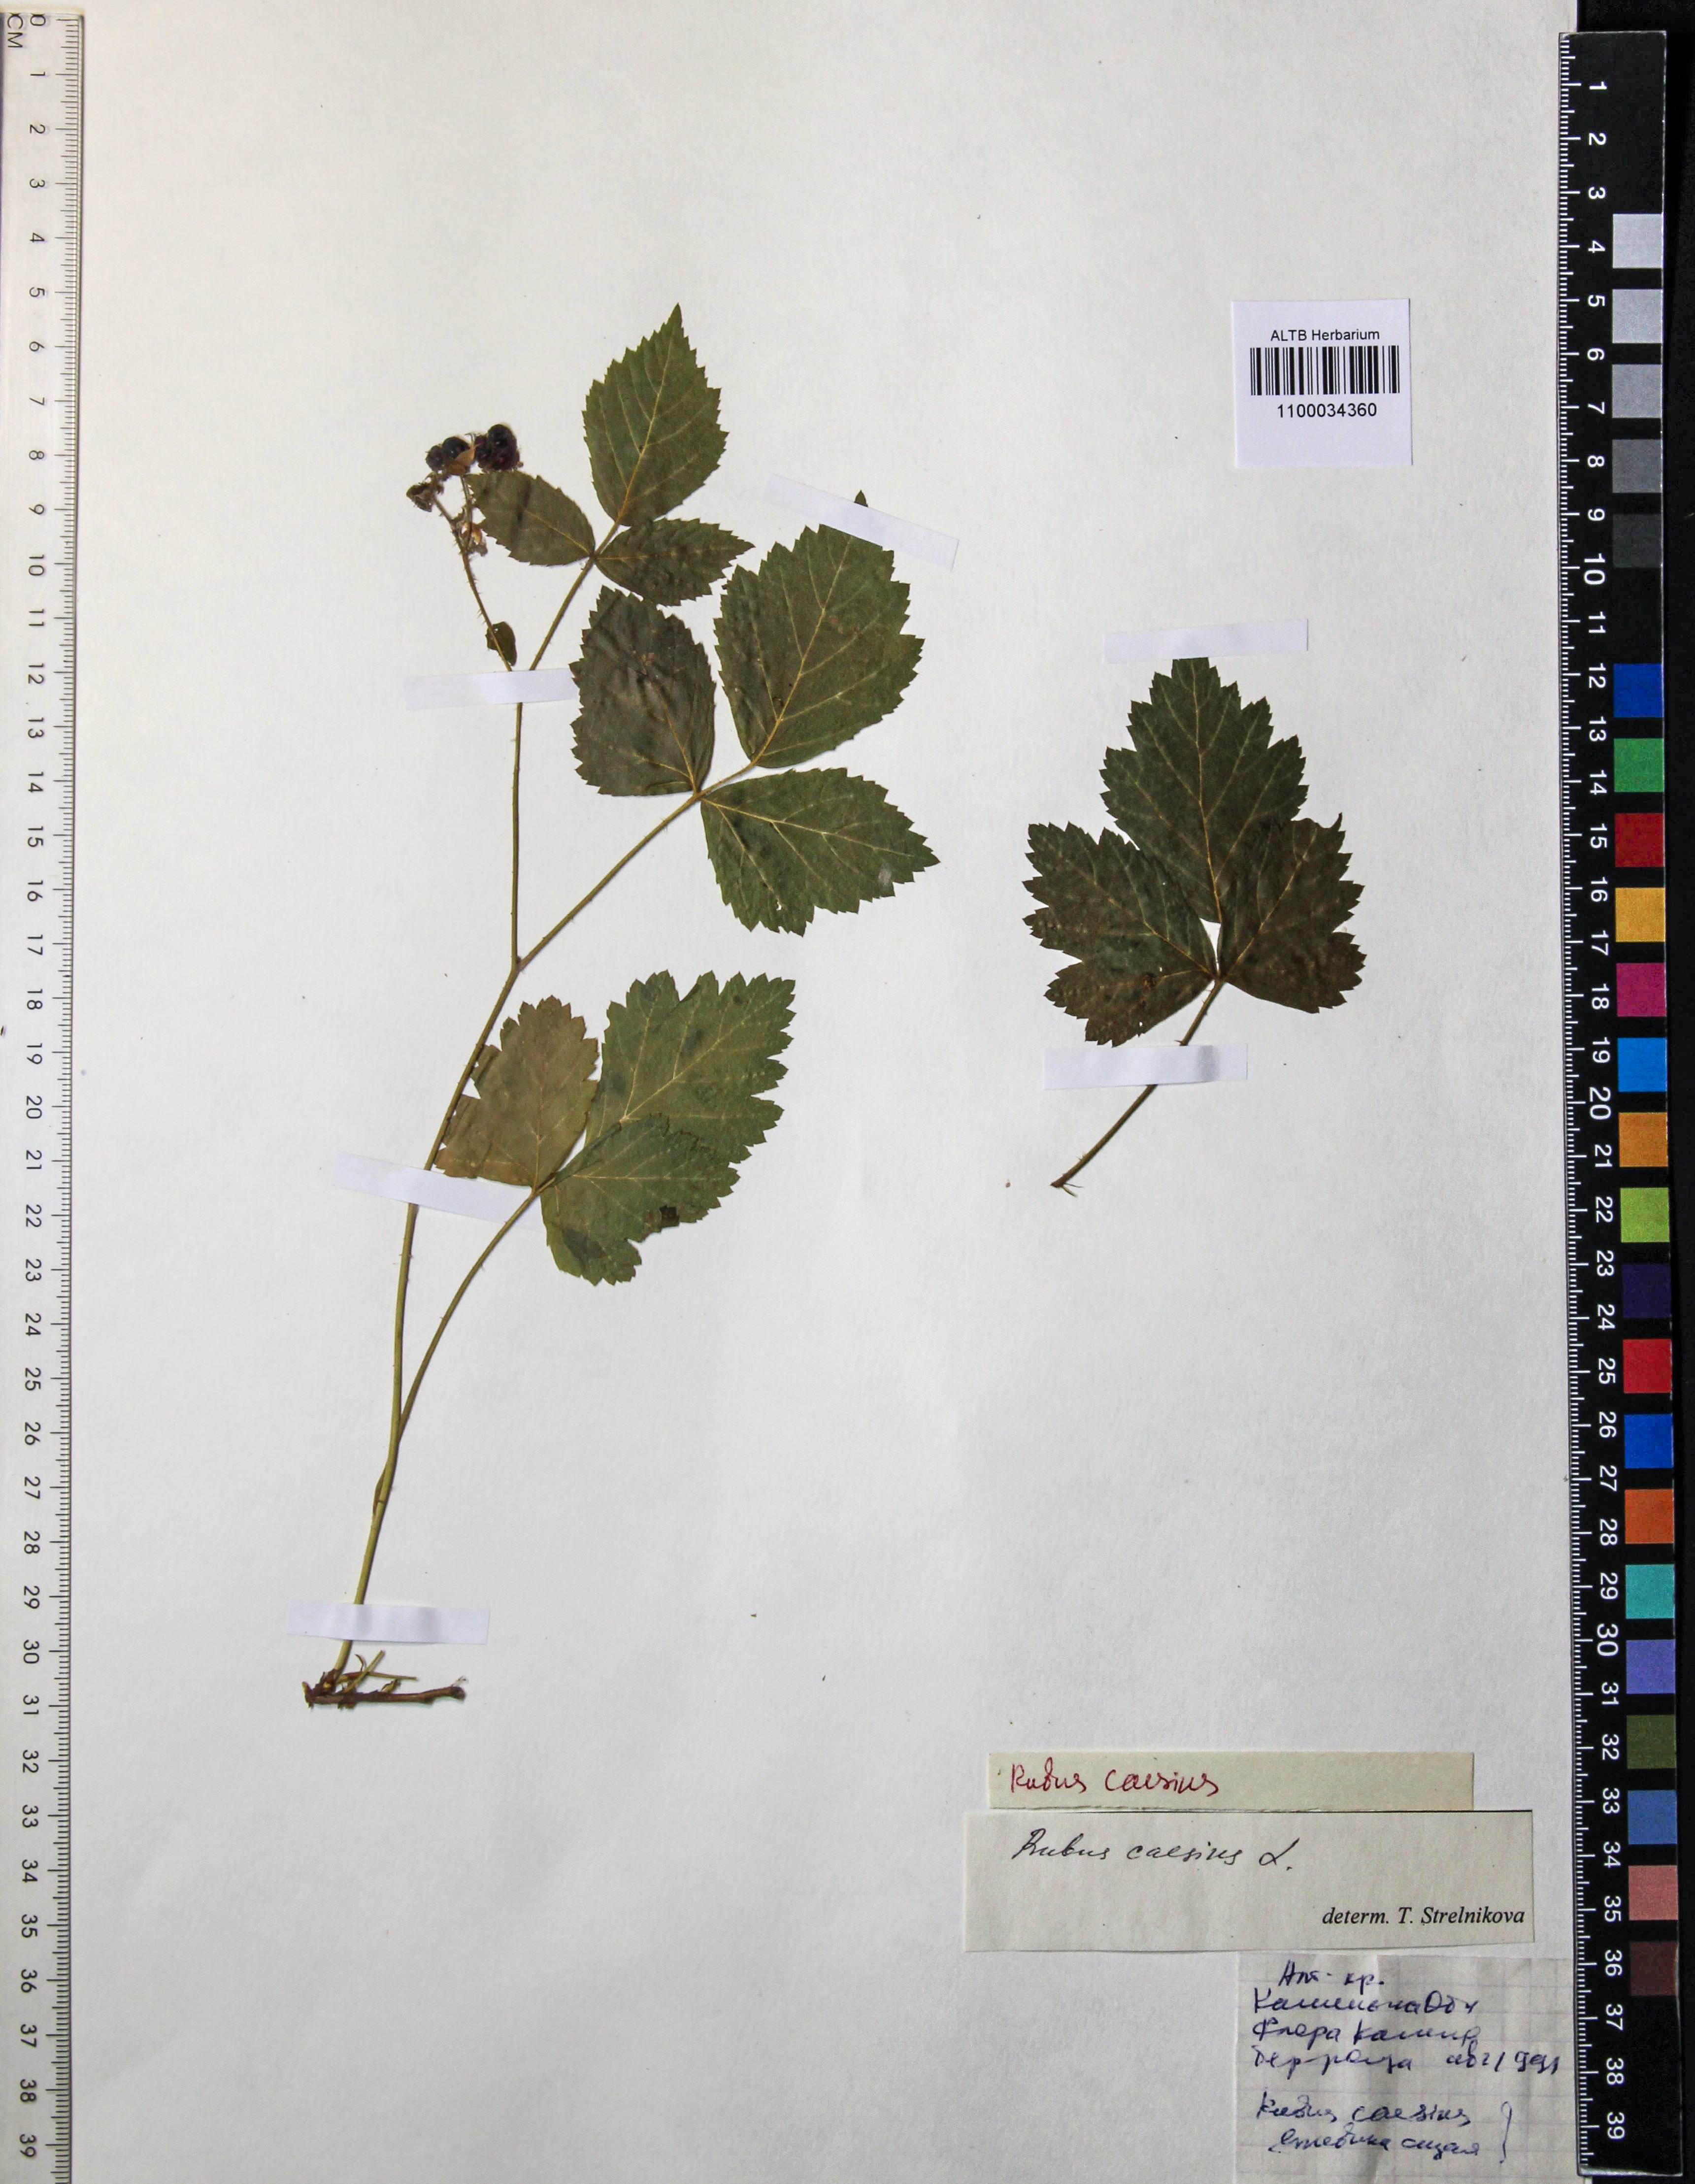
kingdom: Plantae
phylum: Tracheophyta
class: Magnoliopsida
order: Rosales
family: Rosaceae
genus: Rubus
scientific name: Rubus caesius
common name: Dewberry
